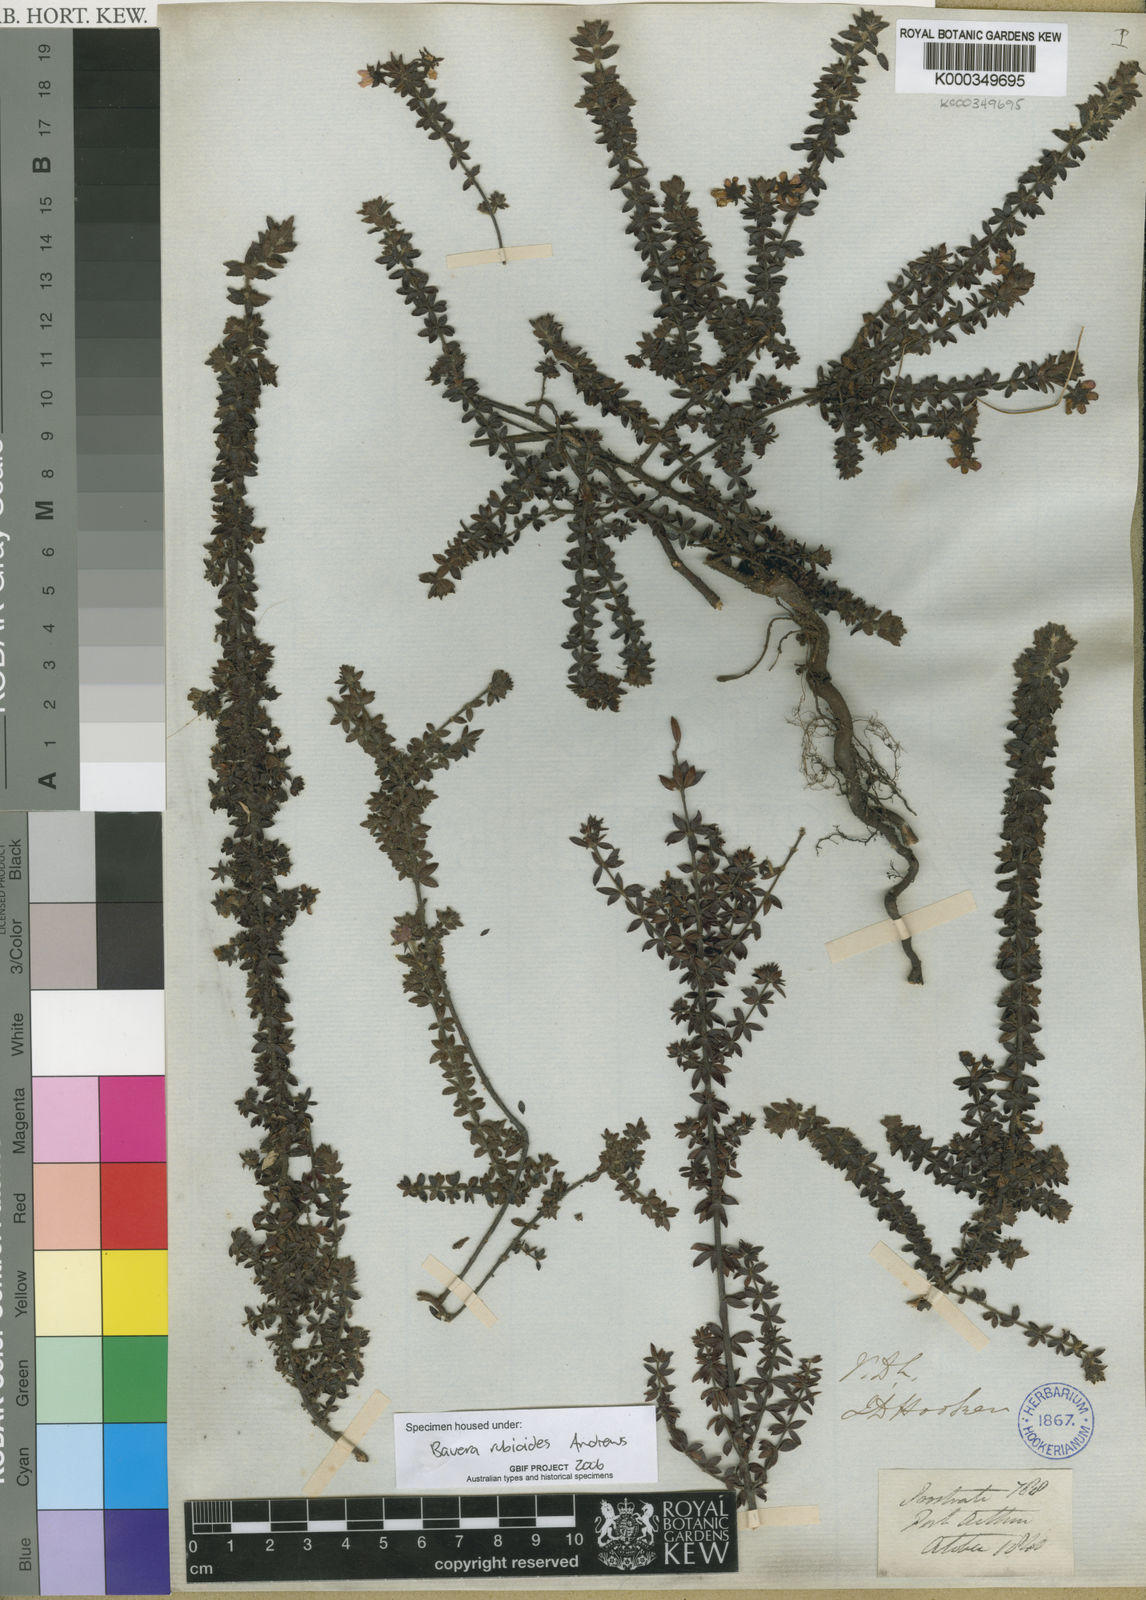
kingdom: Plantae
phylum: Tracheophyta
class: Magnoliopsida
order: Oxalidales
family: Cunoniaceae
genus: Bauera
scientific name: Bauera rubioides
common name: River-rose
